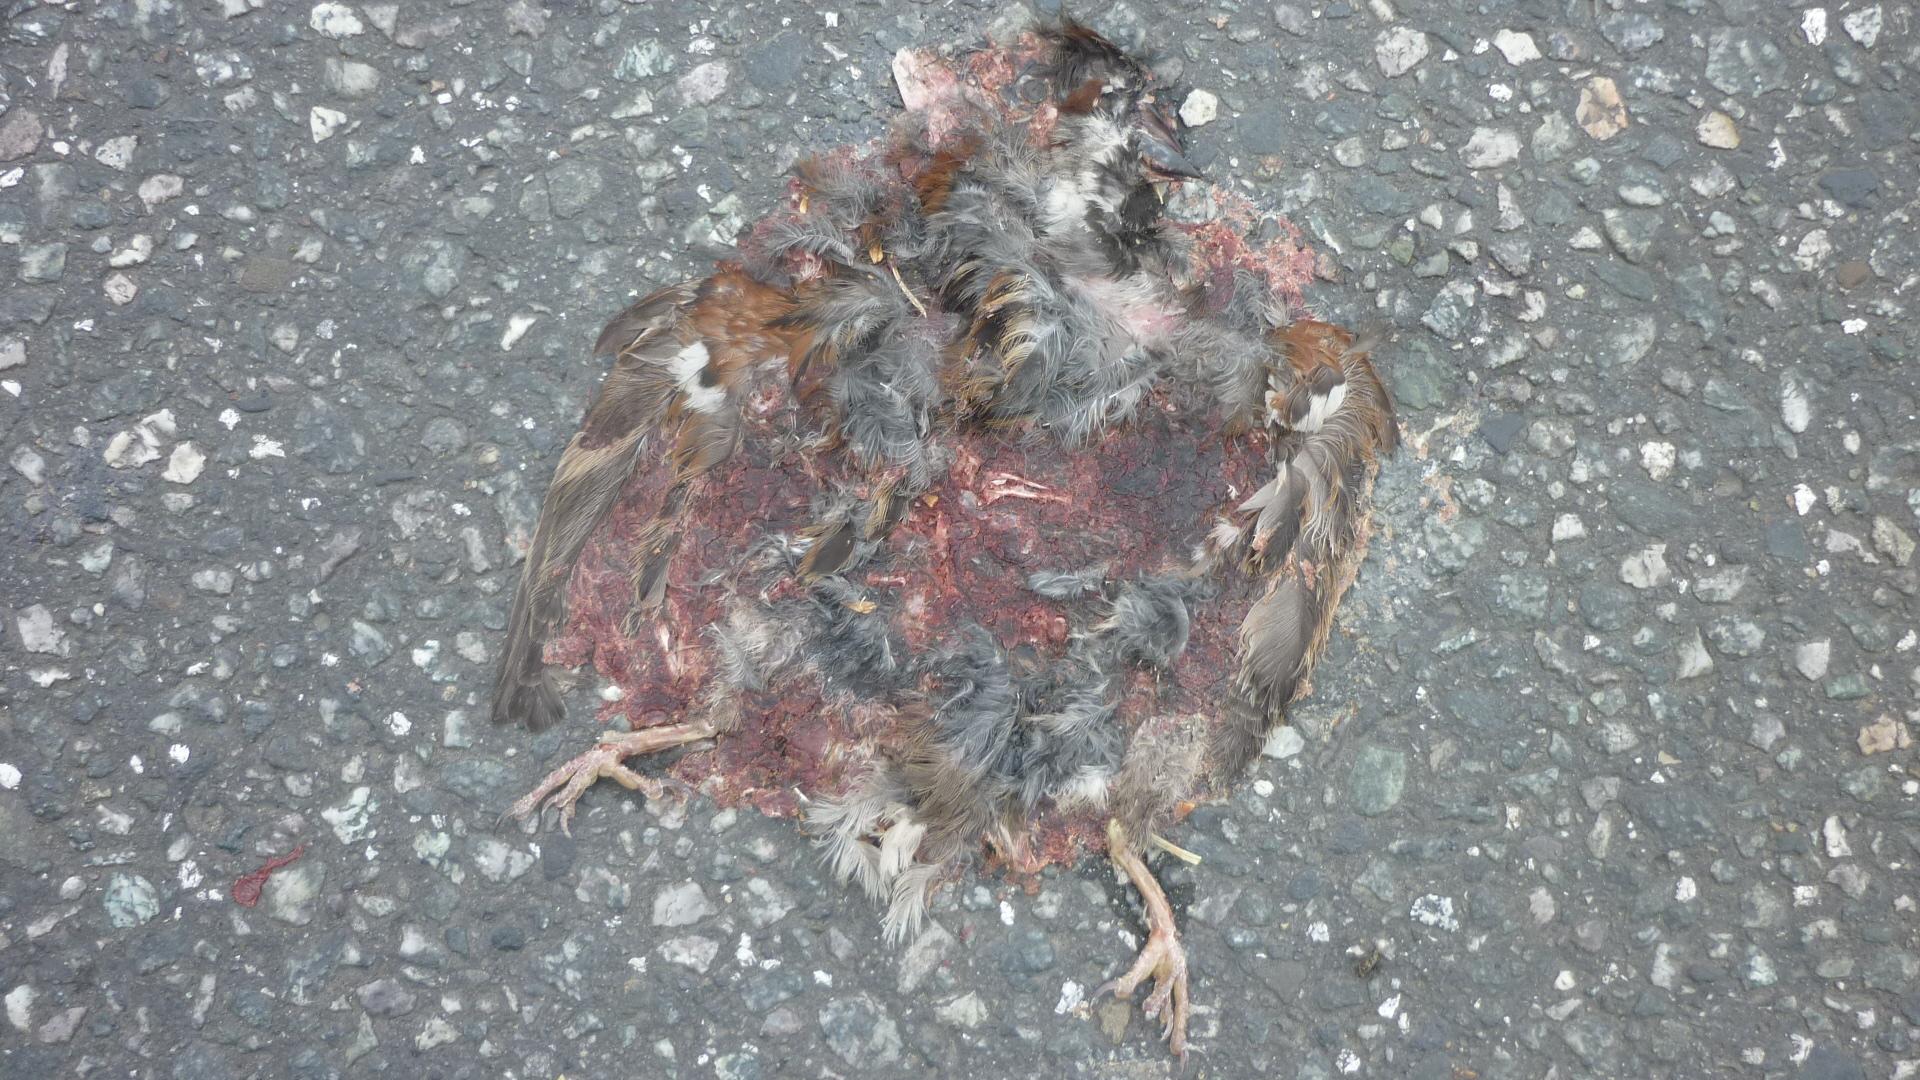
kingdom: Animalia
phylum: Chordata
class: Aves
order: Passeriformes
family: Passeridae
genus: Passer
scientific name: Passer
